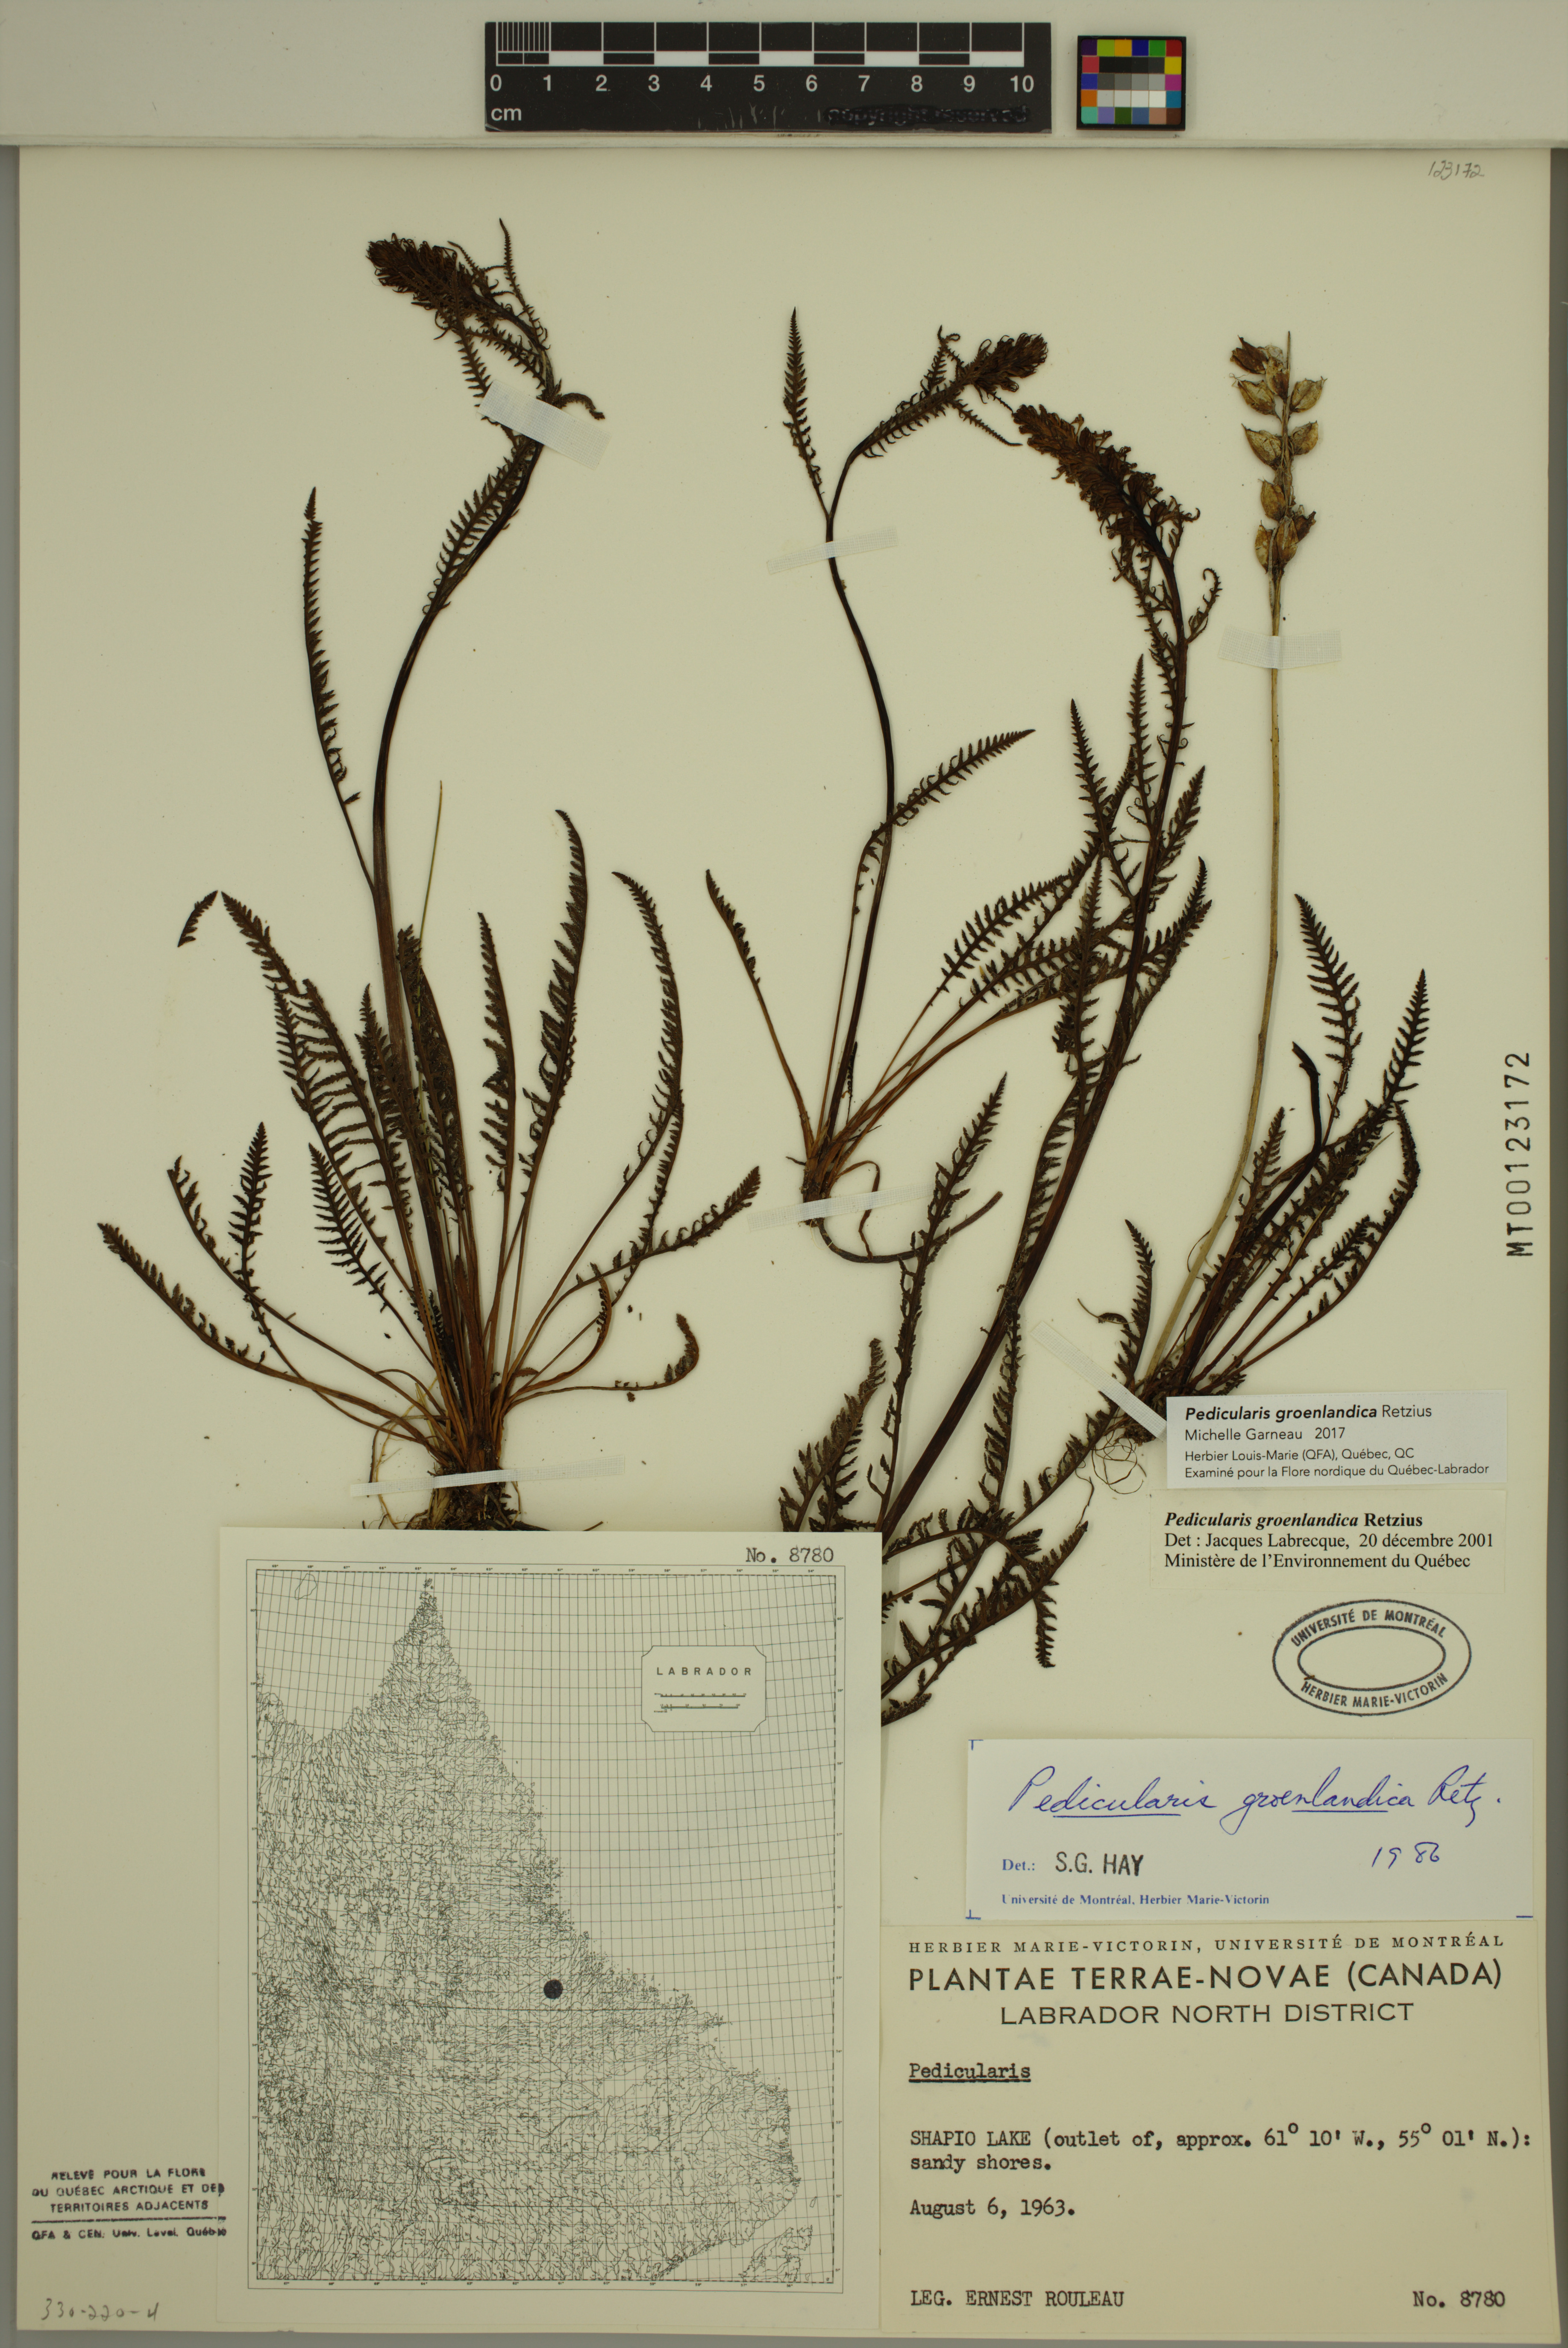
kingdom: Plantae
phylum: Tracheophyta
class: Magnoliopsida
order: Lamiales
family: Orobanchaceae
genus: Pedicularis
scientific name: Pedicularis groenlandica
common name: Elephant's-head
